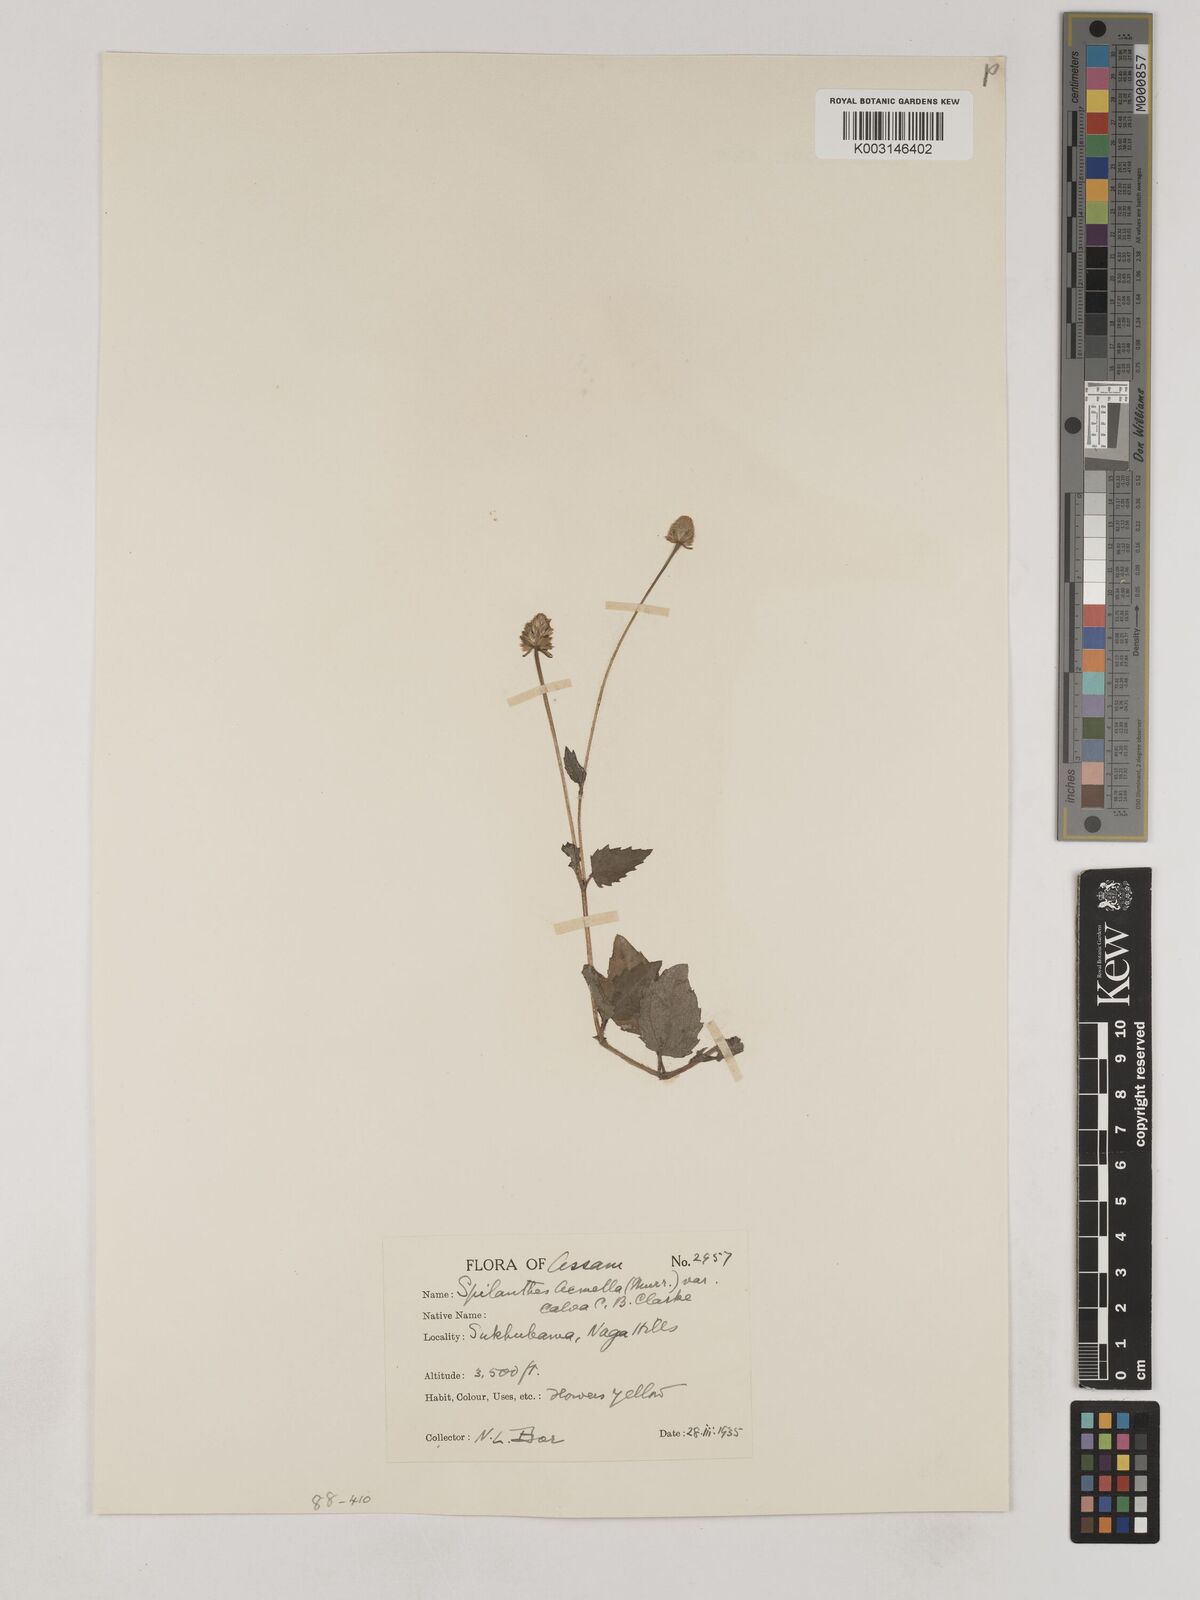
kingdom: Plantae
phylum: Tracheophyta
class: Magnoliopsida
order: Asterales
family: Asteraceae
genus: Acmella
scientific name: Acmella calva
